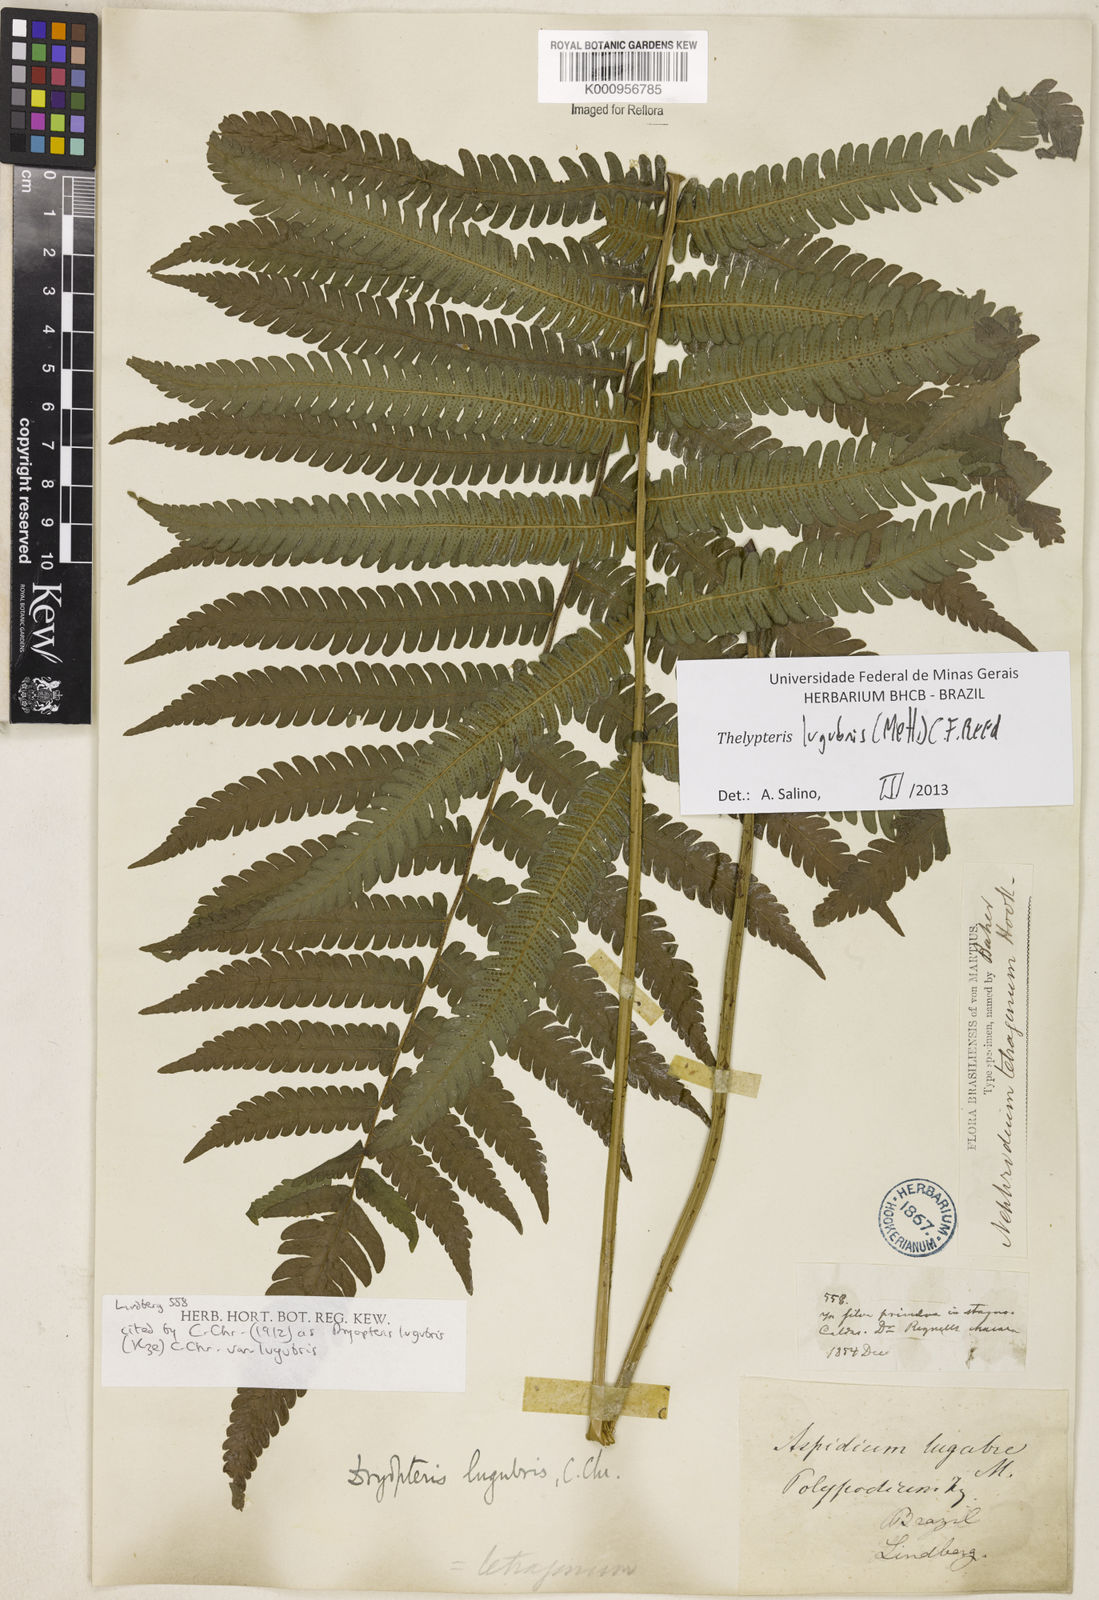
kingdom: Plantae
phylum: Tracheophyta
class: Polypodiopsida
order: Polypodiales
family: Thelypteridaceae
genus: Goniopteris
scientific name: Goniopteris lugubris
